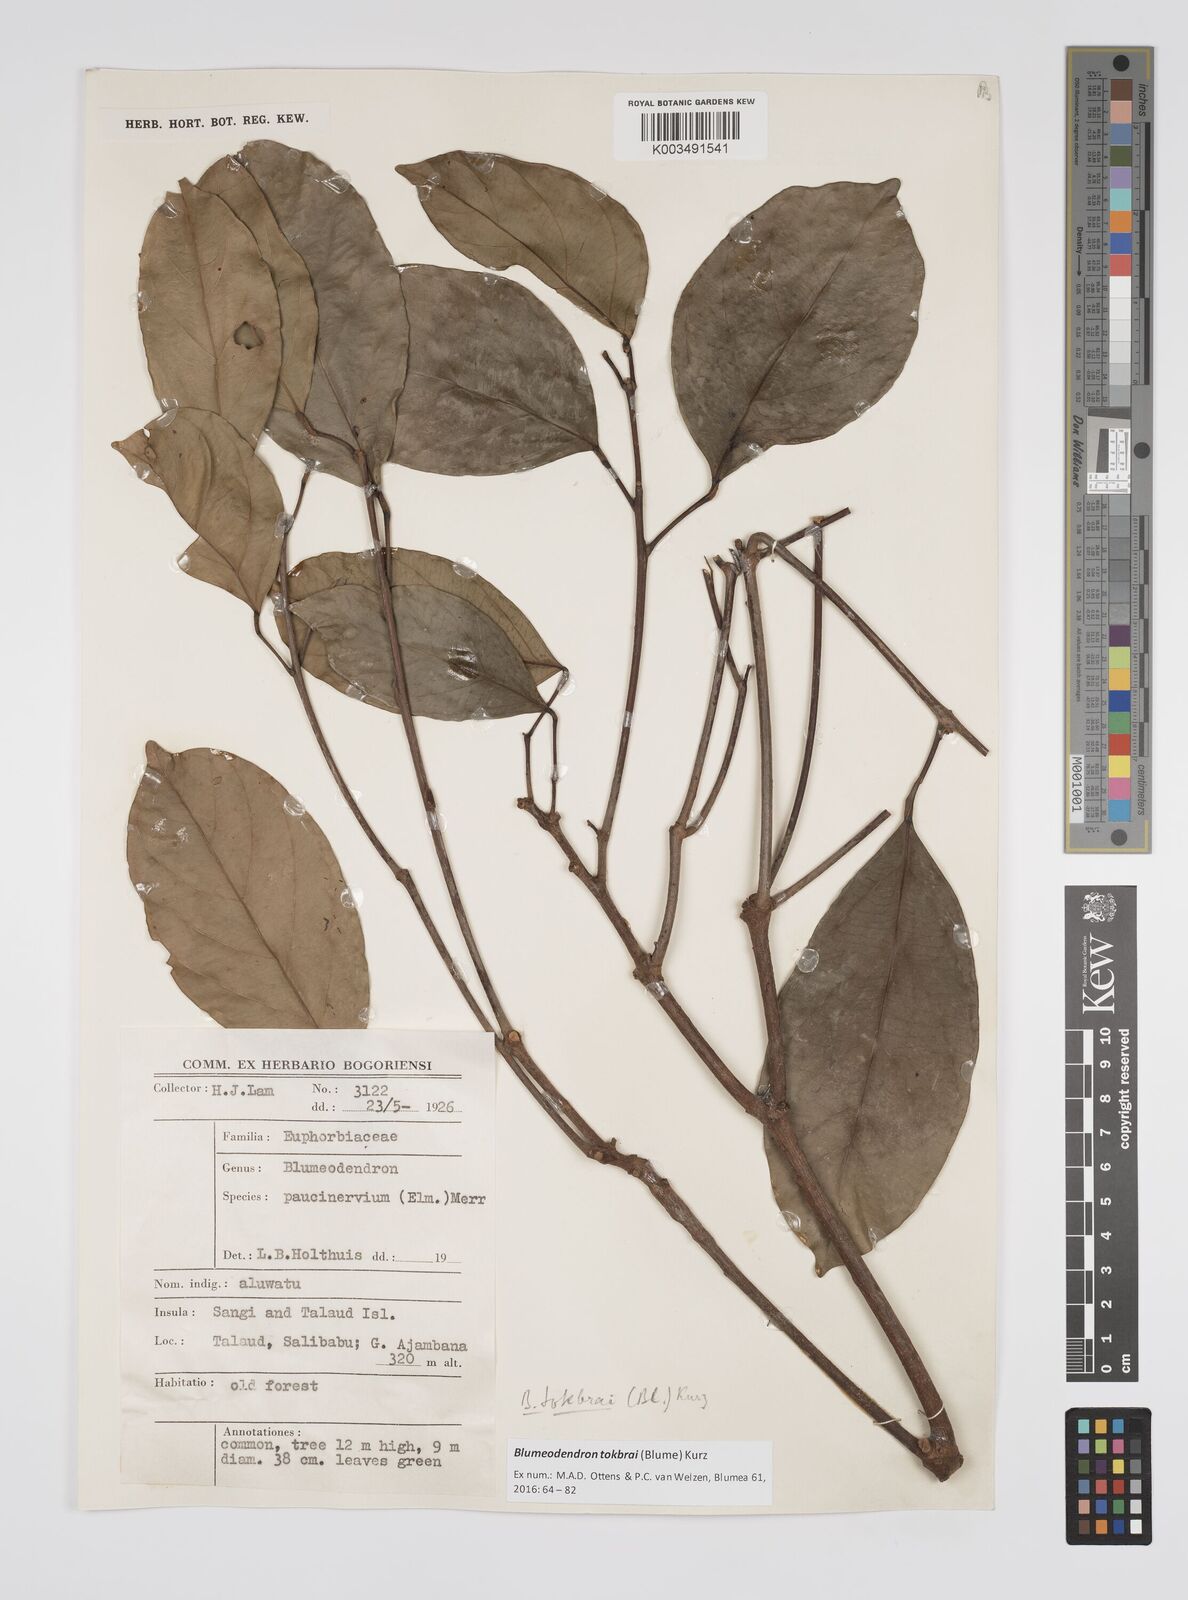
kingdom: Plantae
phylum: Tracheophyta
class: Magnoliopsida
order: Malpighiales
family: Euphorbiaceae
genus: Blumeodendron
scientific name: Blumeodendron tokbrai
